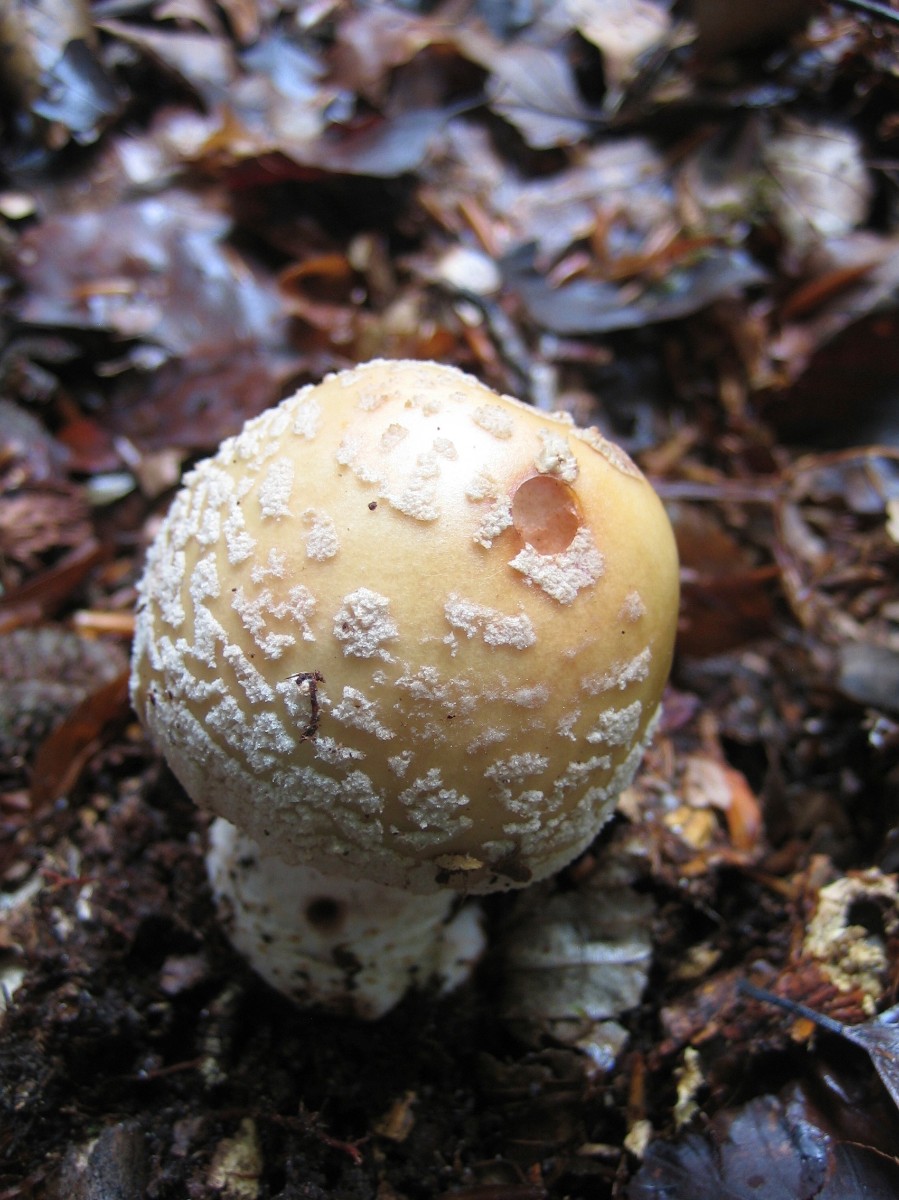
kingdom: Fungi
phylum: Basidiomycota
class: Agaricomycetes
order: Agaricales
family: Amanitaceae
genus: Amanita
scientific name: Amanita rubescens
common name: rødmende fluesvamp
